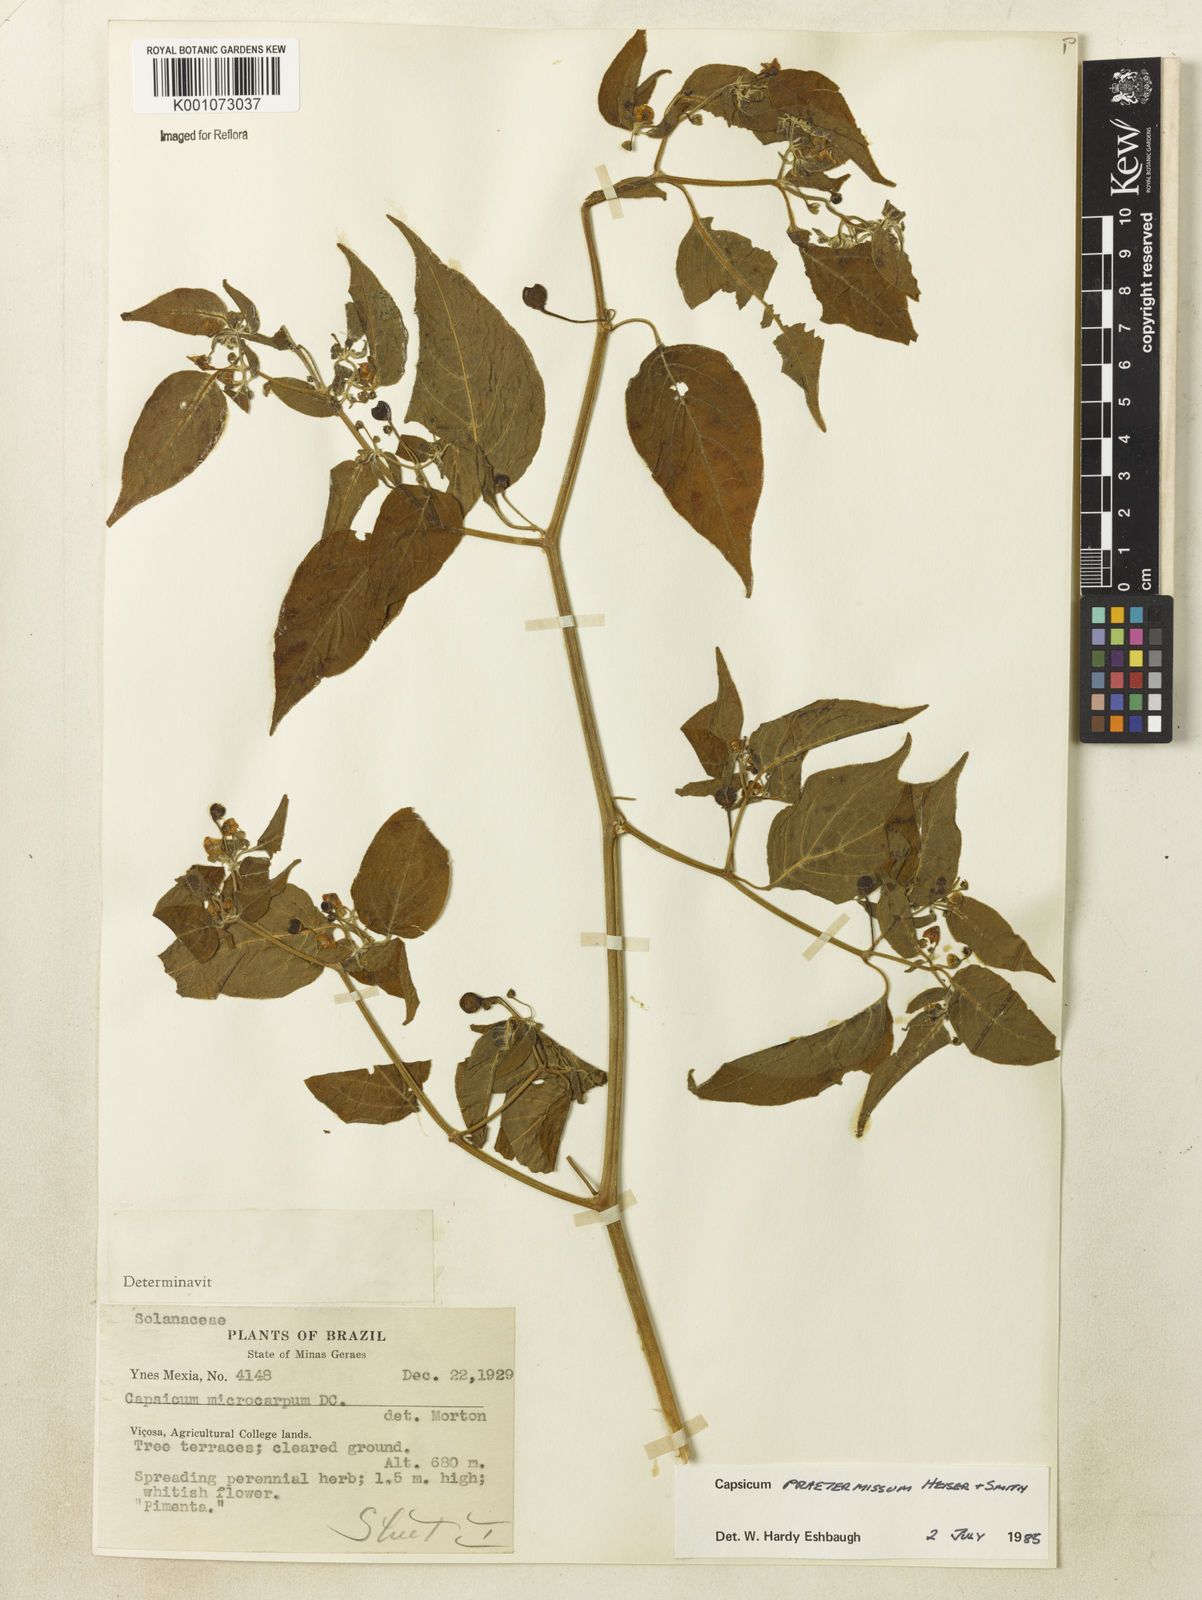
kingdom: Plantae
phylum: Tracheophyta
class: Magnoliopsida
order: Solanales
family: Solanaceae
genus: Capsicum
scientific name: Capsicum rabenii
